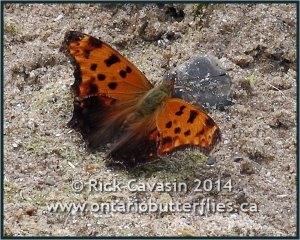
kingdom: Animalia
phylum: Arthropoda
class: Insecta
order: Lepidoptera
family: Nymphalidae
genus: Polygonia
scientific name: Polygonia comma
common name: Eastern Comma
